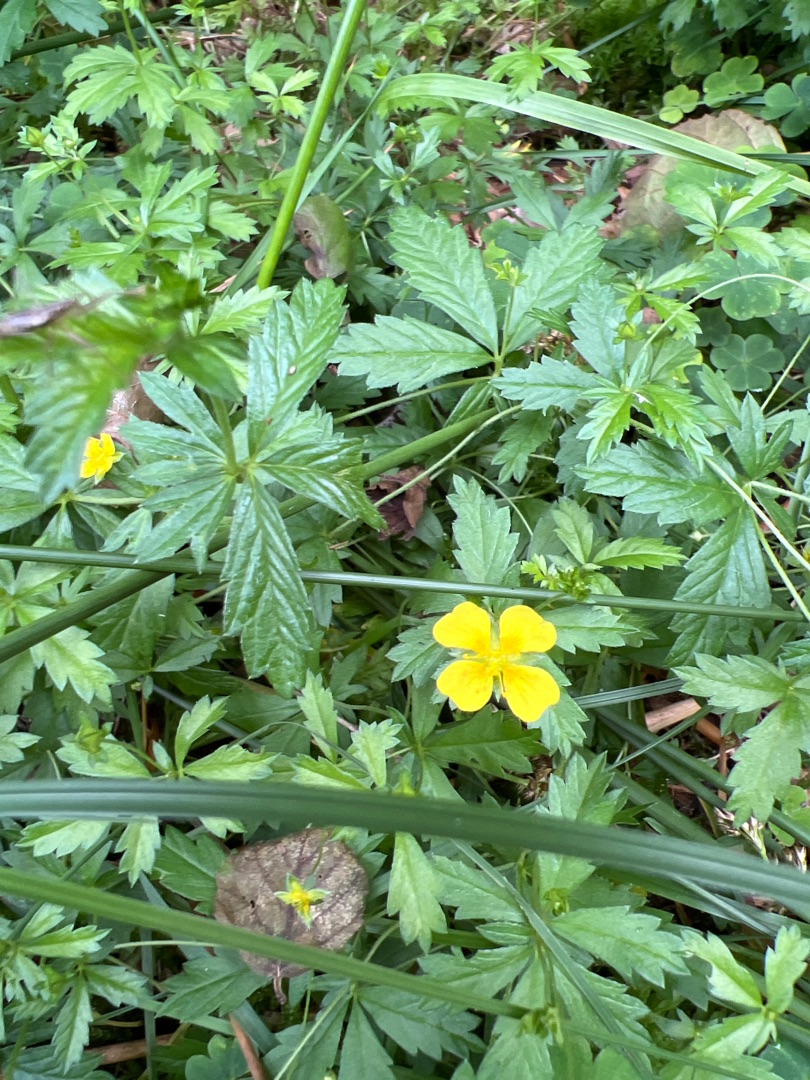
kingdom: Plantae
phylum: Tracheophyta
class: Magnoliopsida
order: Rosales
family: Rosaceae
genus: Potentilla
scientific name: Potentilla erecta
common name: Tormentil
